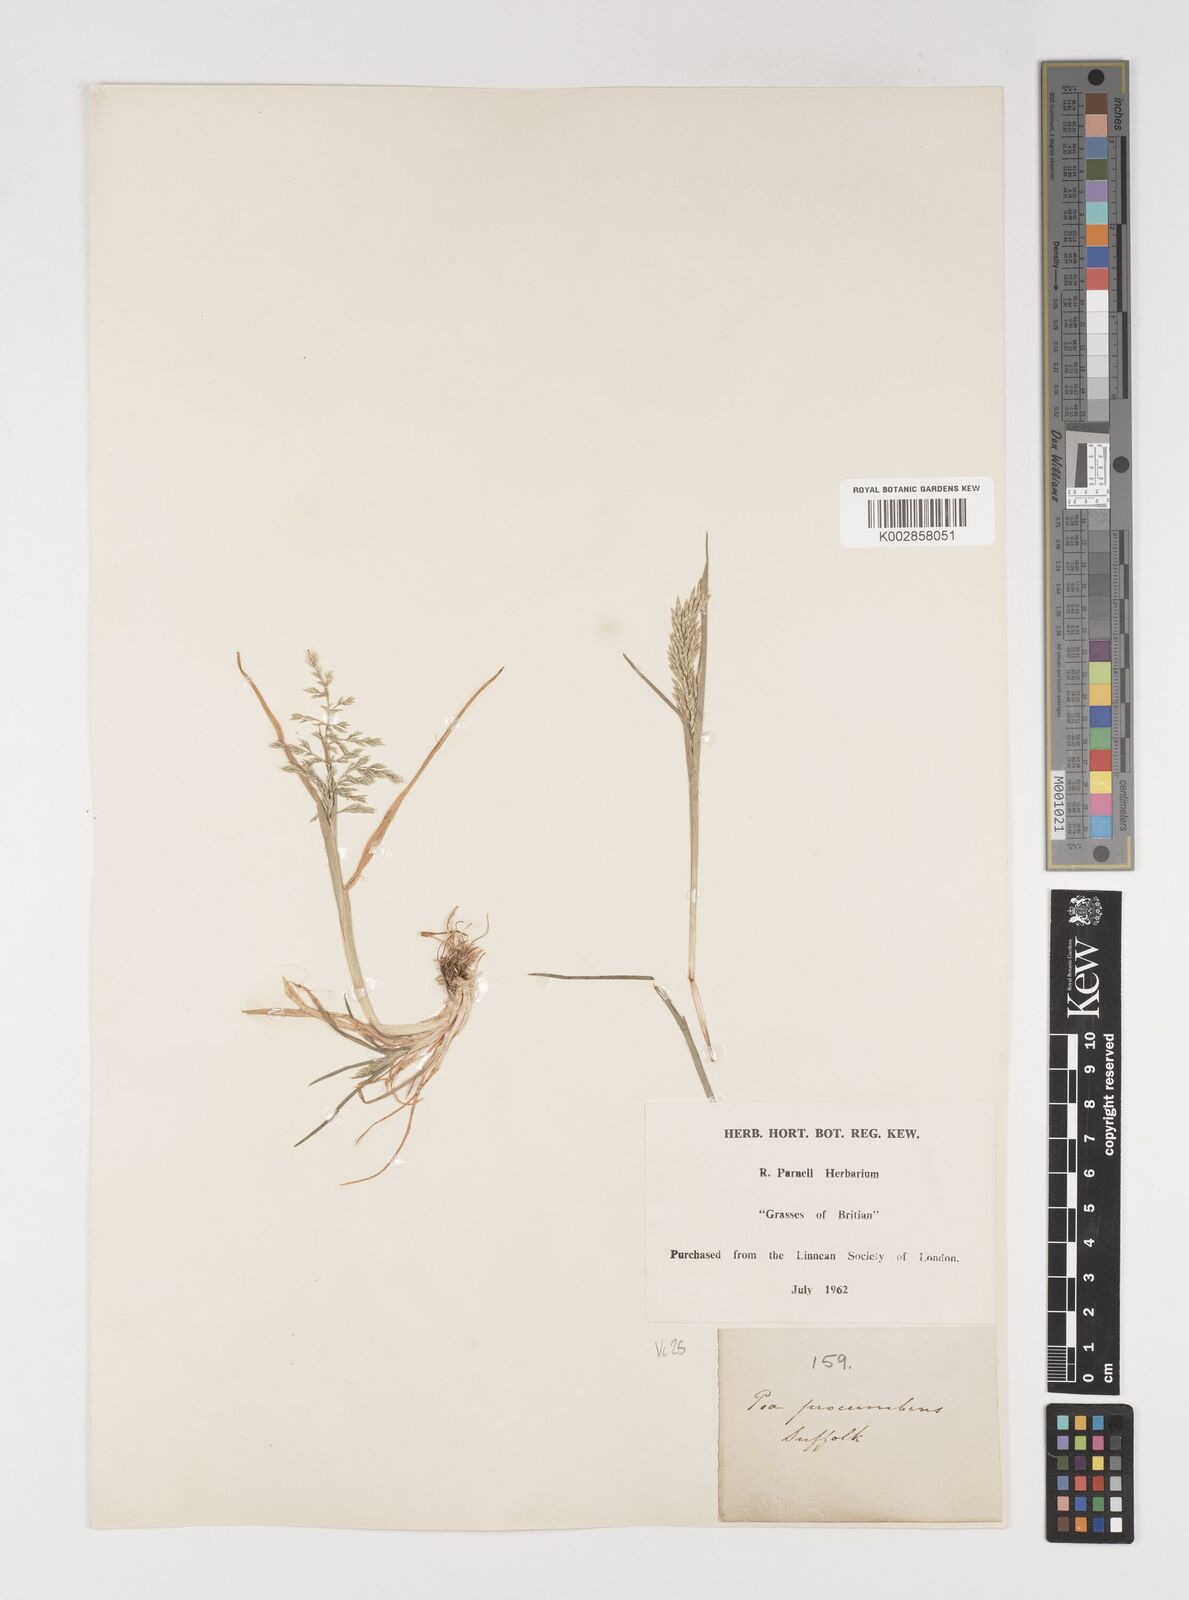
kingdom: Plantae
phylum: Tracheophyta
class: Liliopsida
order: Poales
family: Poaceae
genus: Puccinellia
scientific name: Puccinellia rupestris
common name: Stiff saltmarsh-grass
